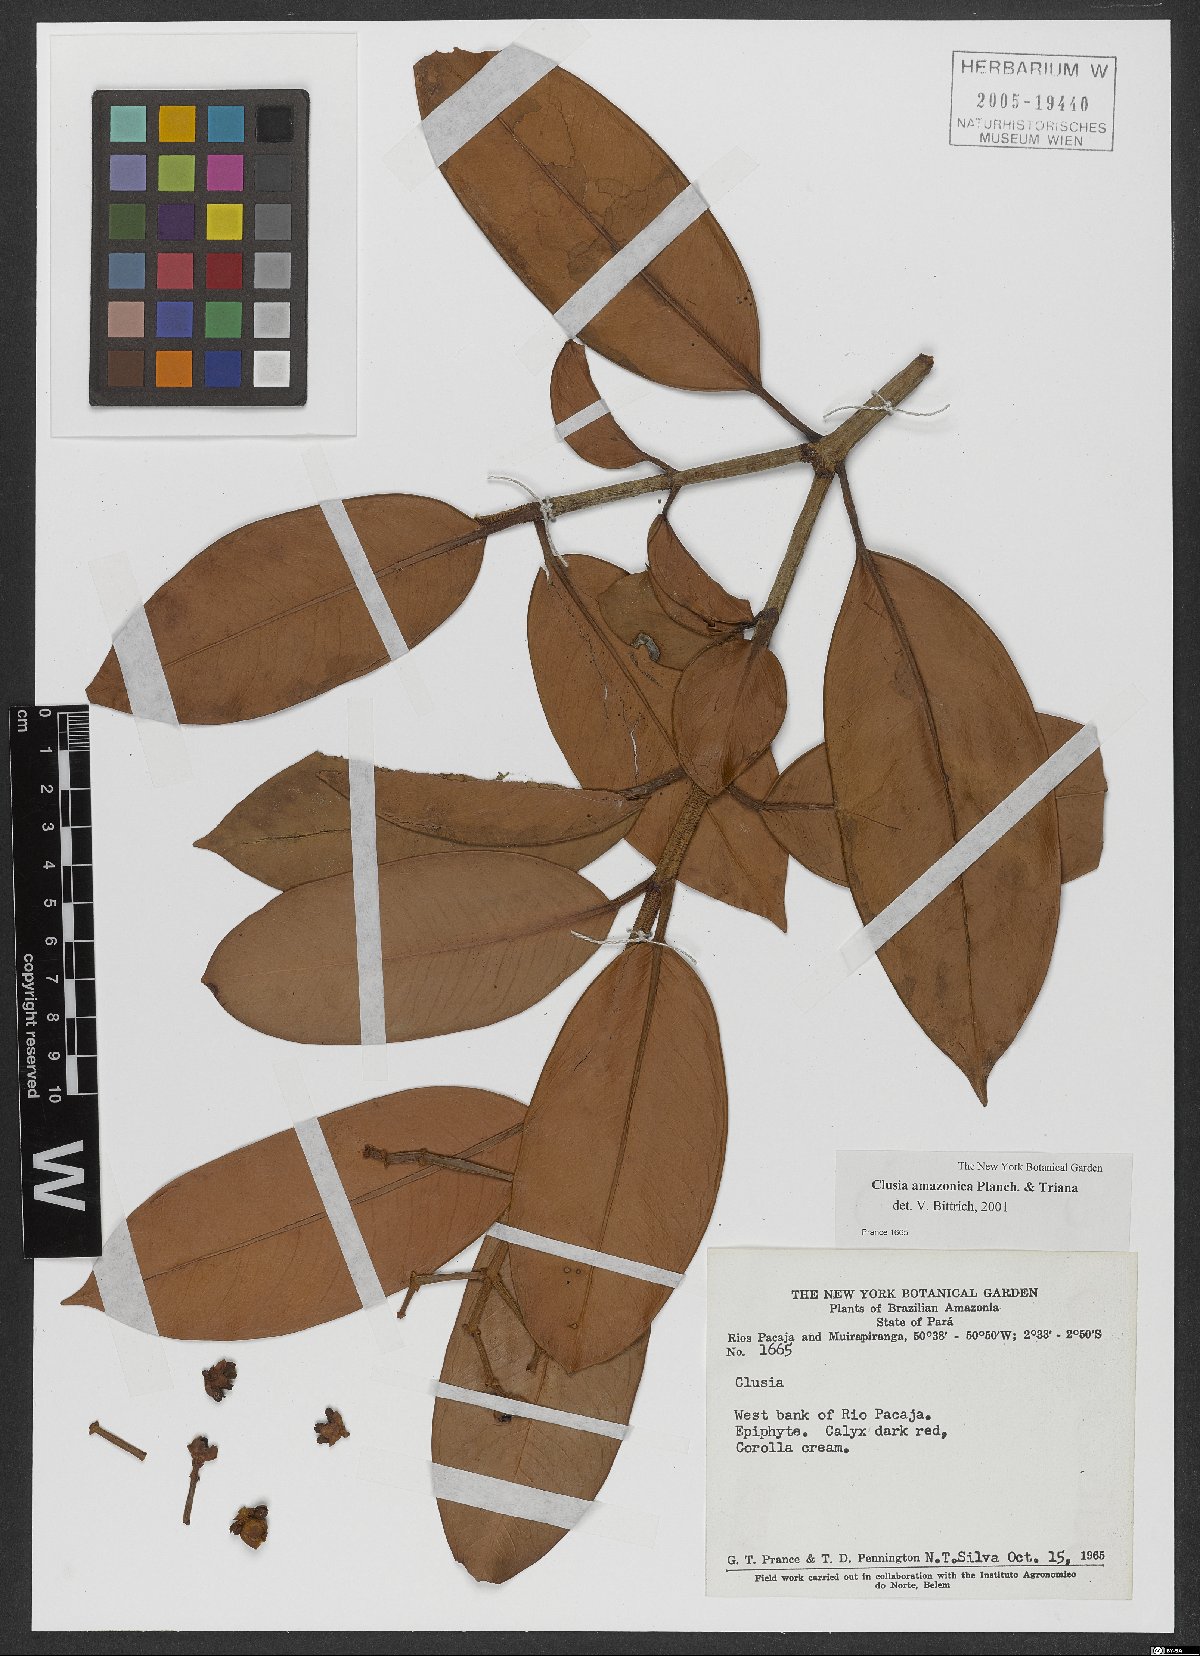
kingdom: Plantae
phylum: Tracheophyta
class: Magnoliopsida
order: Malpighiales
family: Clusiaceae
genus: Clusia
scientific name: Clusia amazonica
